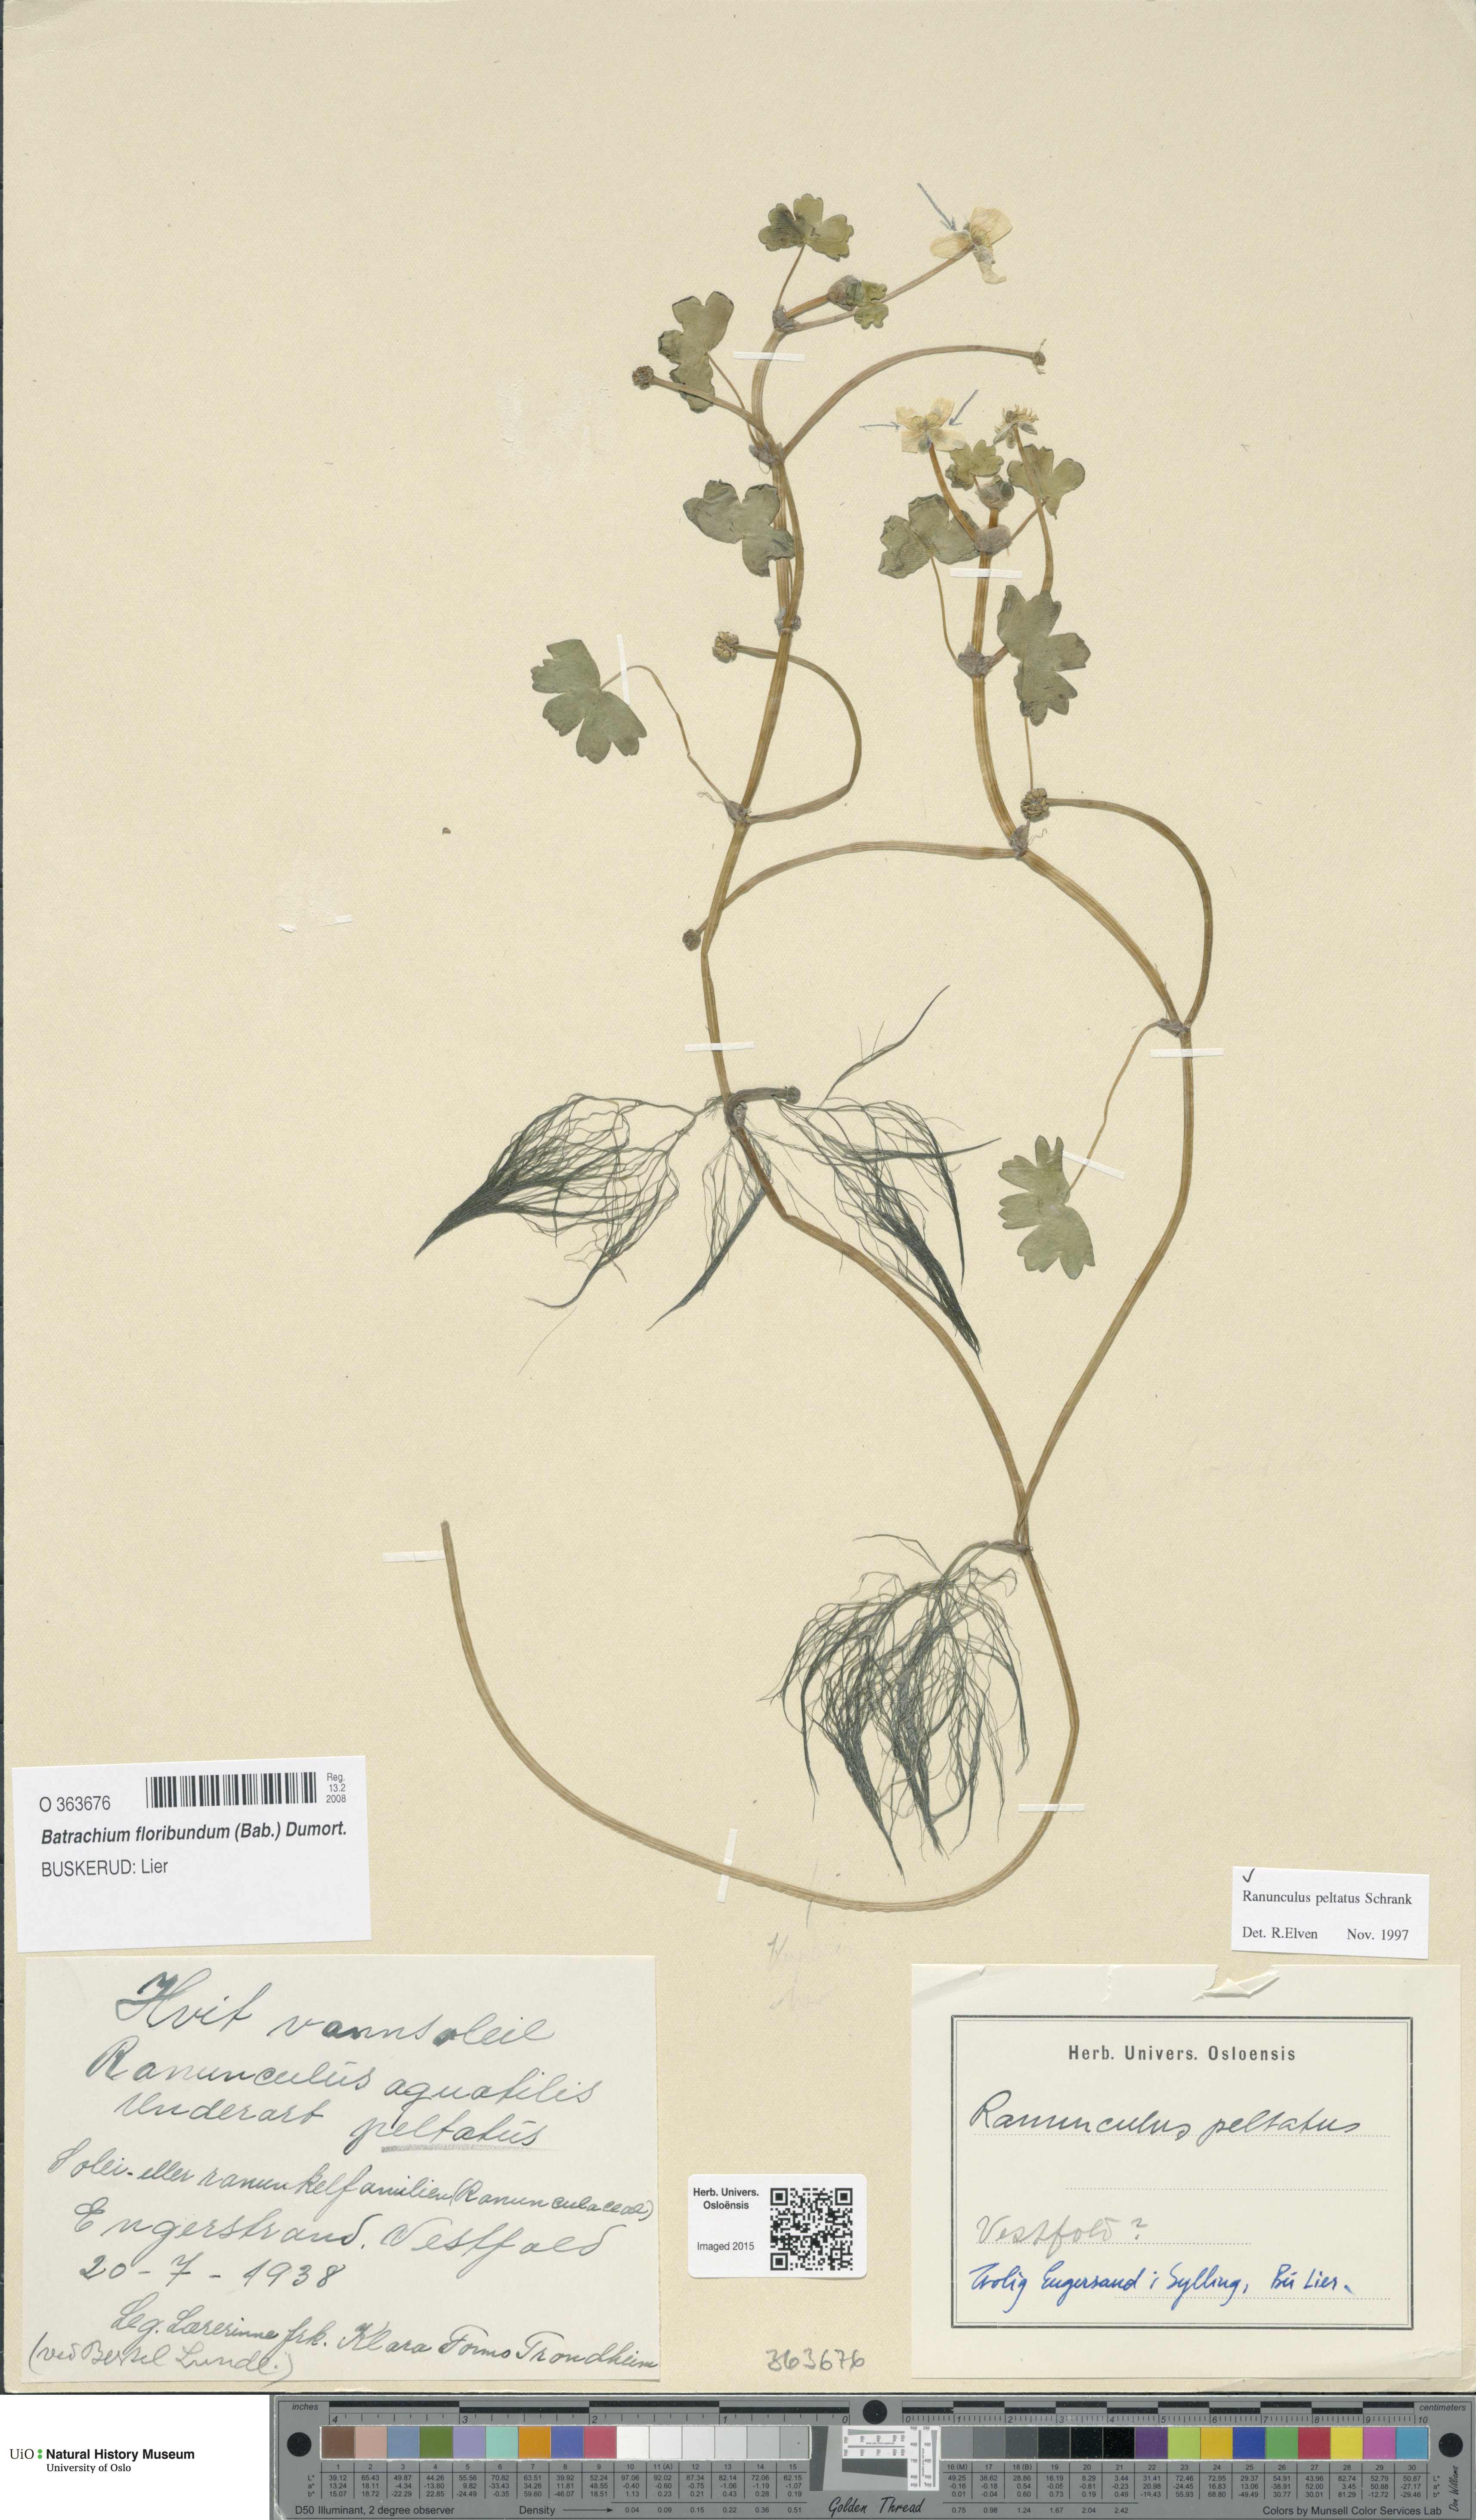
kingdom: Plantae
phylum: Tracheophyta
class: Magnoliopsida
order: Ranunculales
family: Ranunculaceae
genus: Ranunculus
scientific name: Ranunculus peltatus
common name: Pond water-crowfoot
